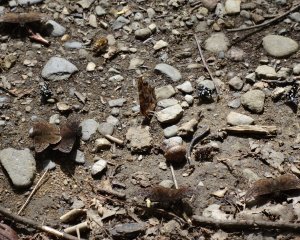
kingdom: Animalia
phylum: Arthropoda
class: Insecta
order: Lepidoptera
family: Hesperiidae
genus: Gesta
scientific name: Gesta
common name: Juvenal's Duskywing
